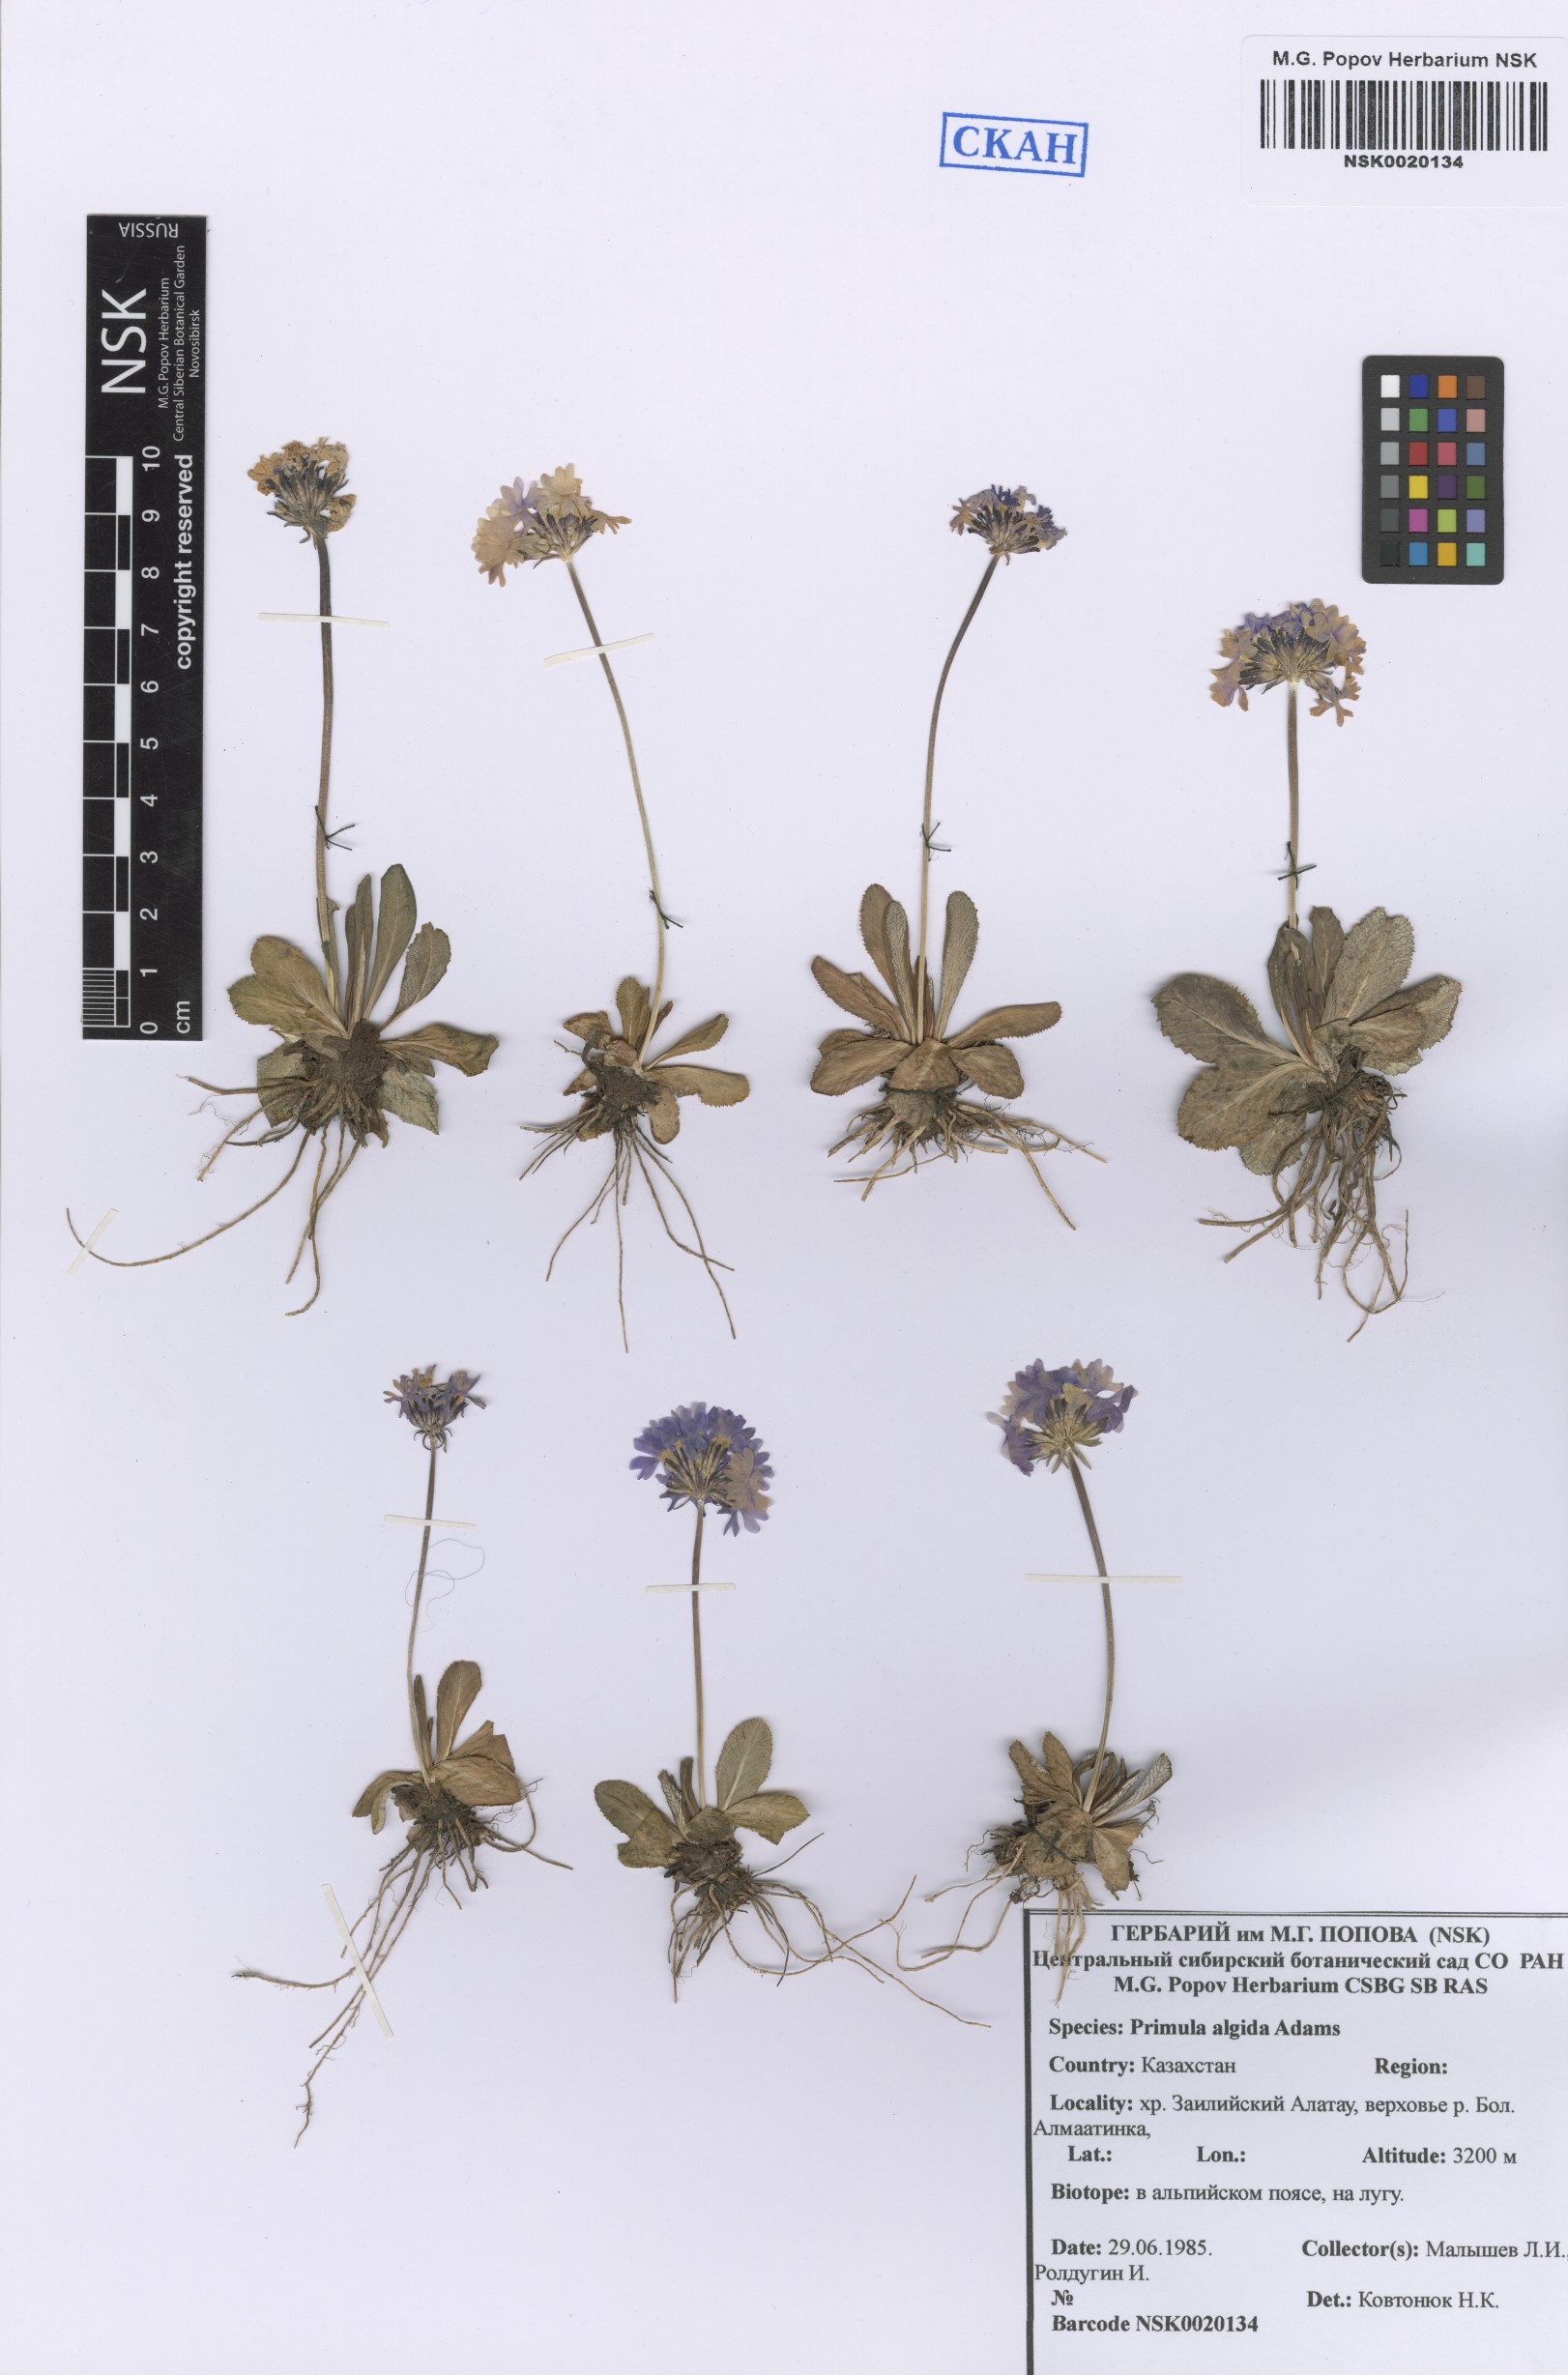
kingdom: Plantae
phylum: Tracheophyta
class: Magnoliopsida
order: Ericales
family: Primulaceae
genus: Primula
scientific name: Primula algida
